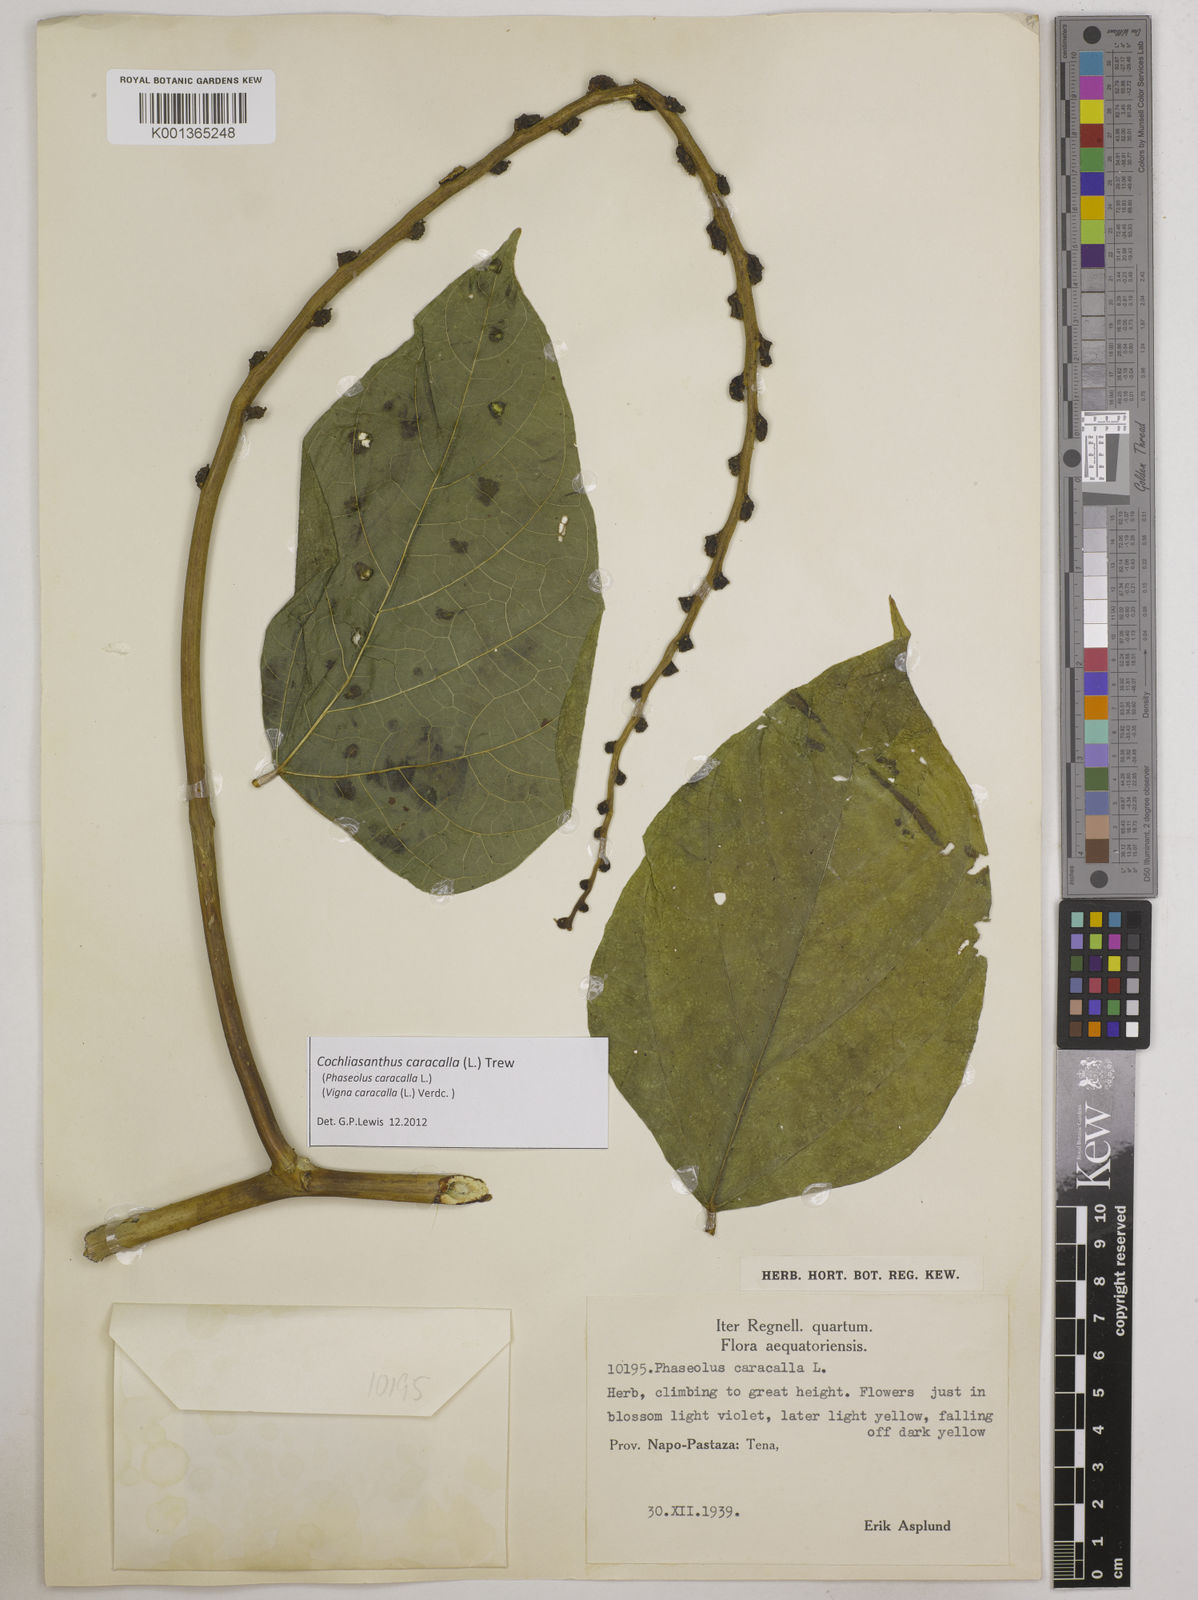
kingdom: Plantae
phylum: Tracheophyta
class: Magnoliopsida
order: Fabales
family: Fabaceae
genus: Cochliasanthus
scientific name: Cochliasanthus caracalla
